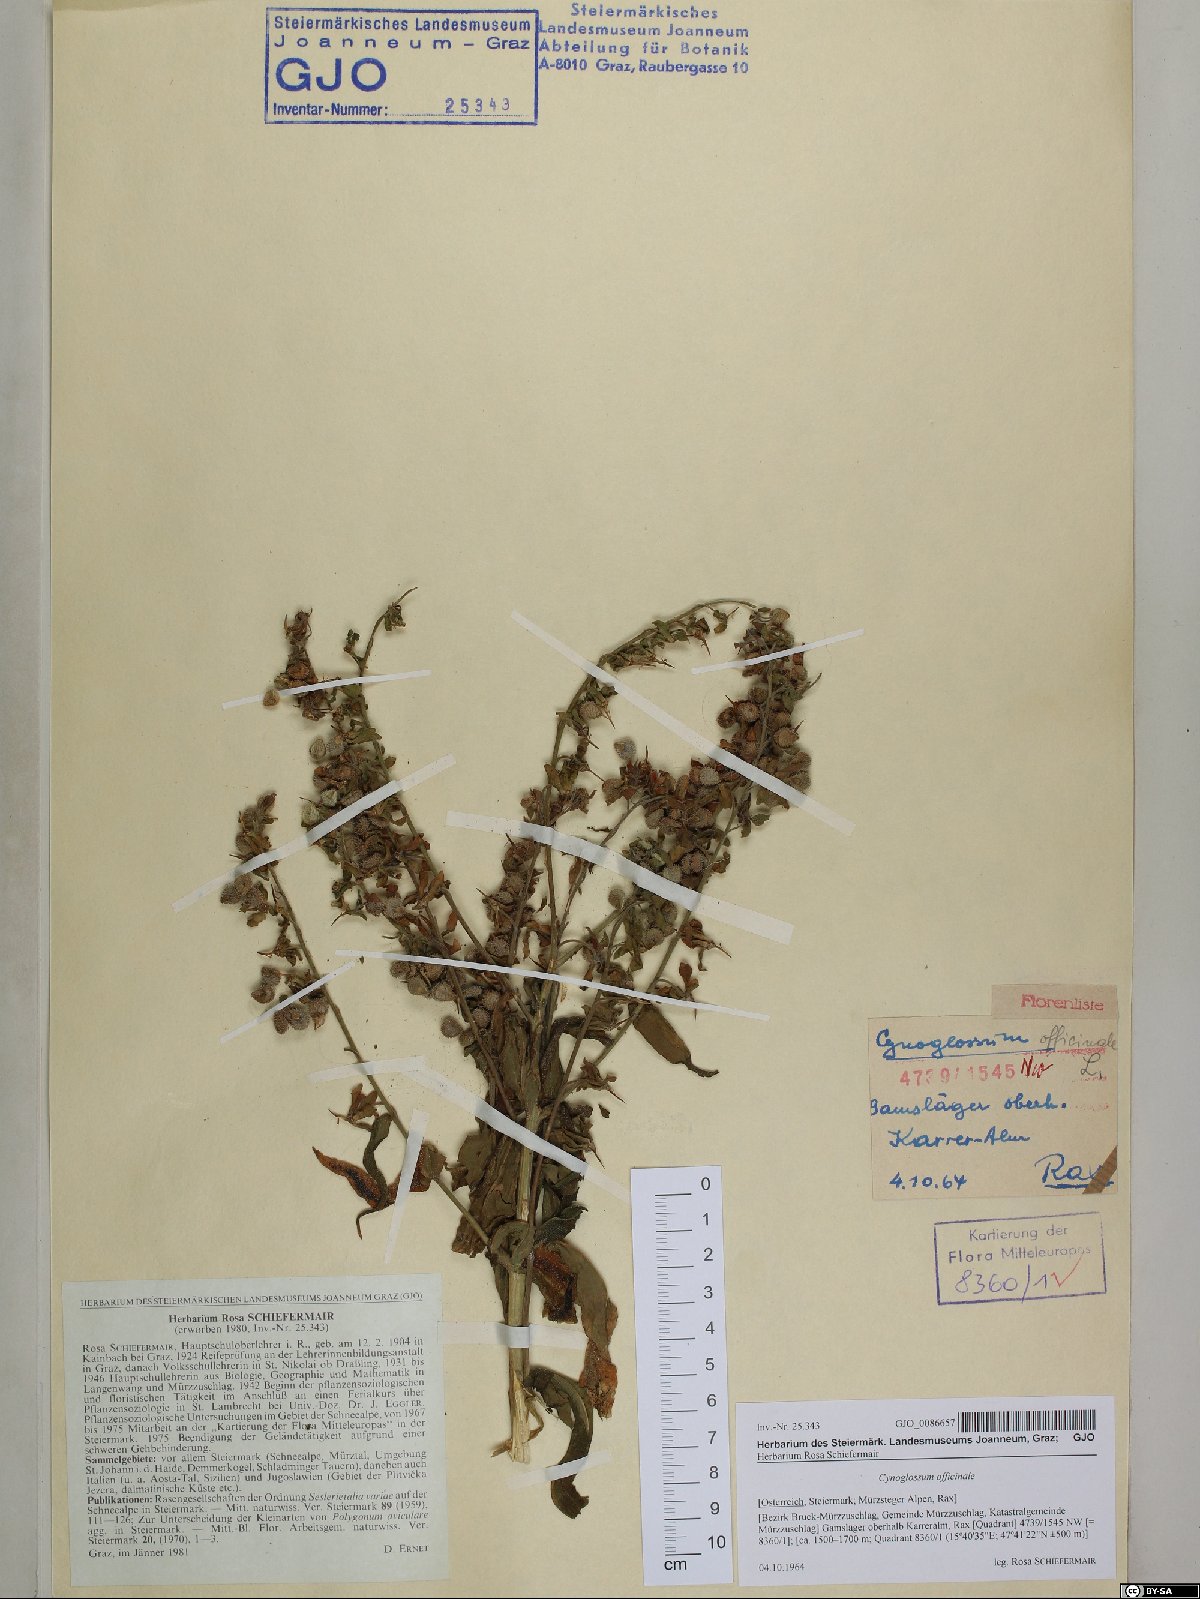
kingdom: Plantae
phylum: Tracheophyta
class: Magnoliopsida
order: Boraginales
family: Boraginaceae
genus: Cynoglossum
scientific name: Cynoglossum officinale
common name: Hound's-tongue
